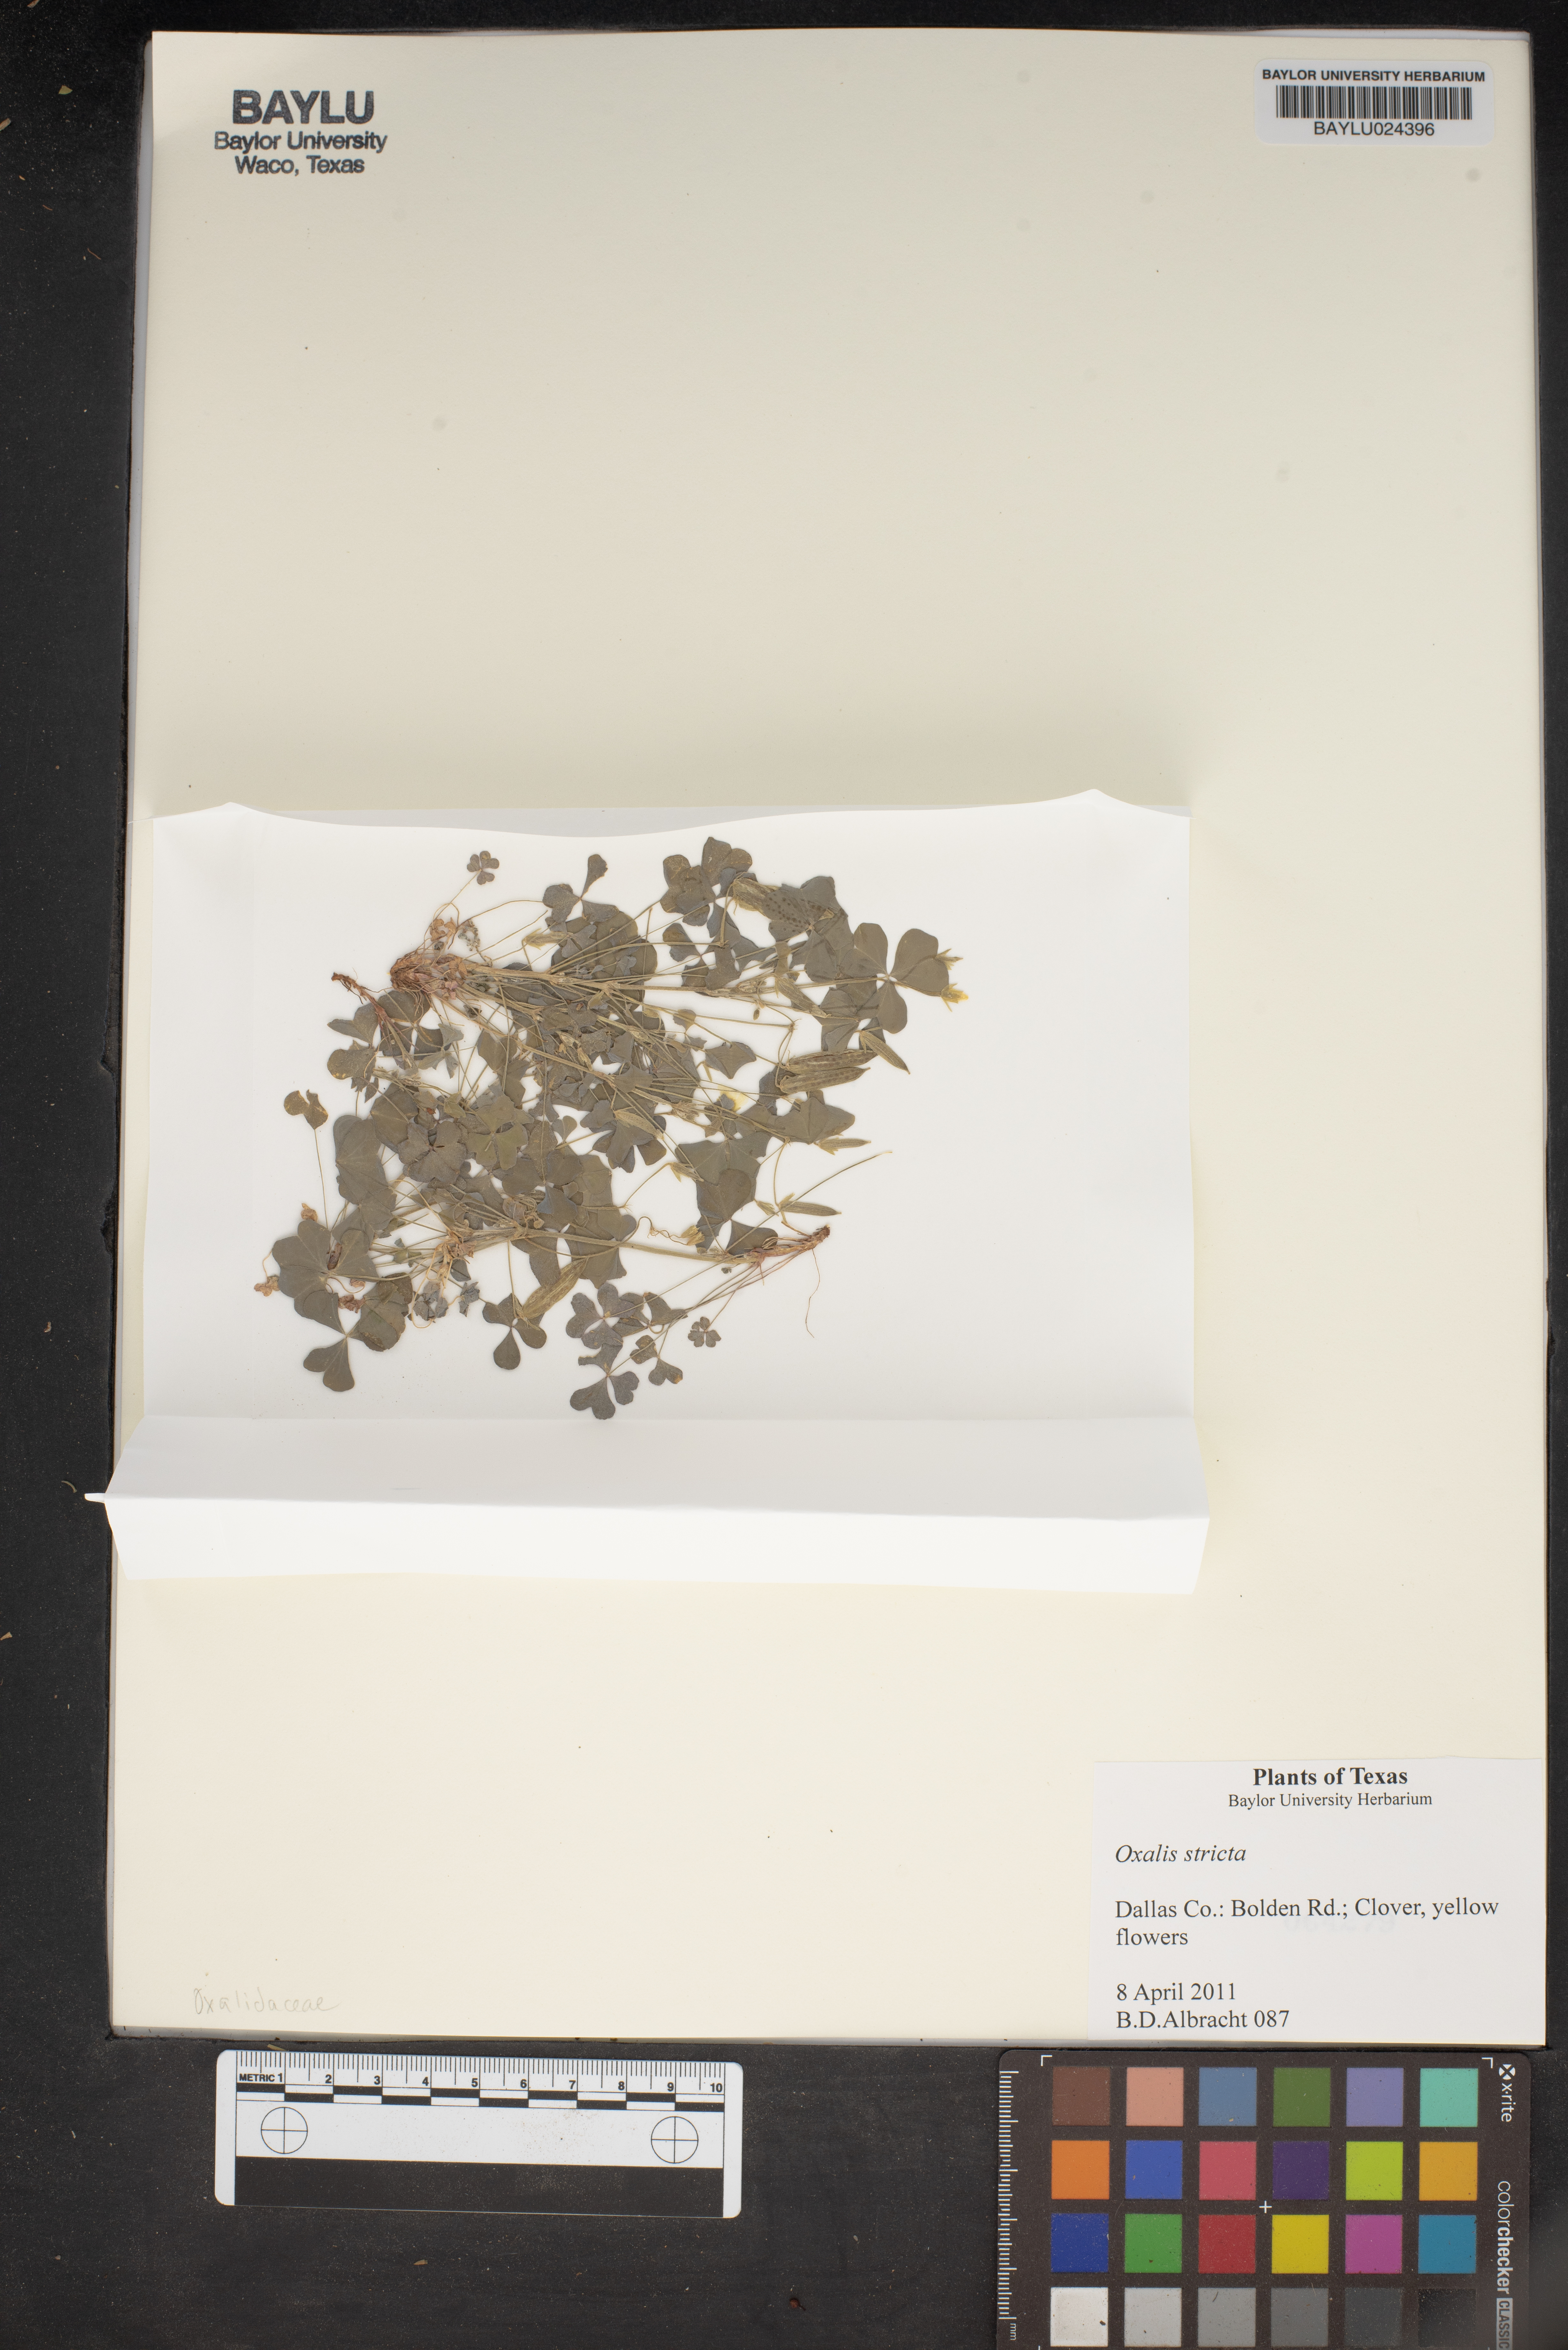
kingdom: Plantae
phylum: Tracheophyta
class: Magnoliopsida
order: Oxalidales
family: Oxalidaceae
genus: Oxalis
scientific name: Oxalis stricta
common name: Upright yellow-sorrel
